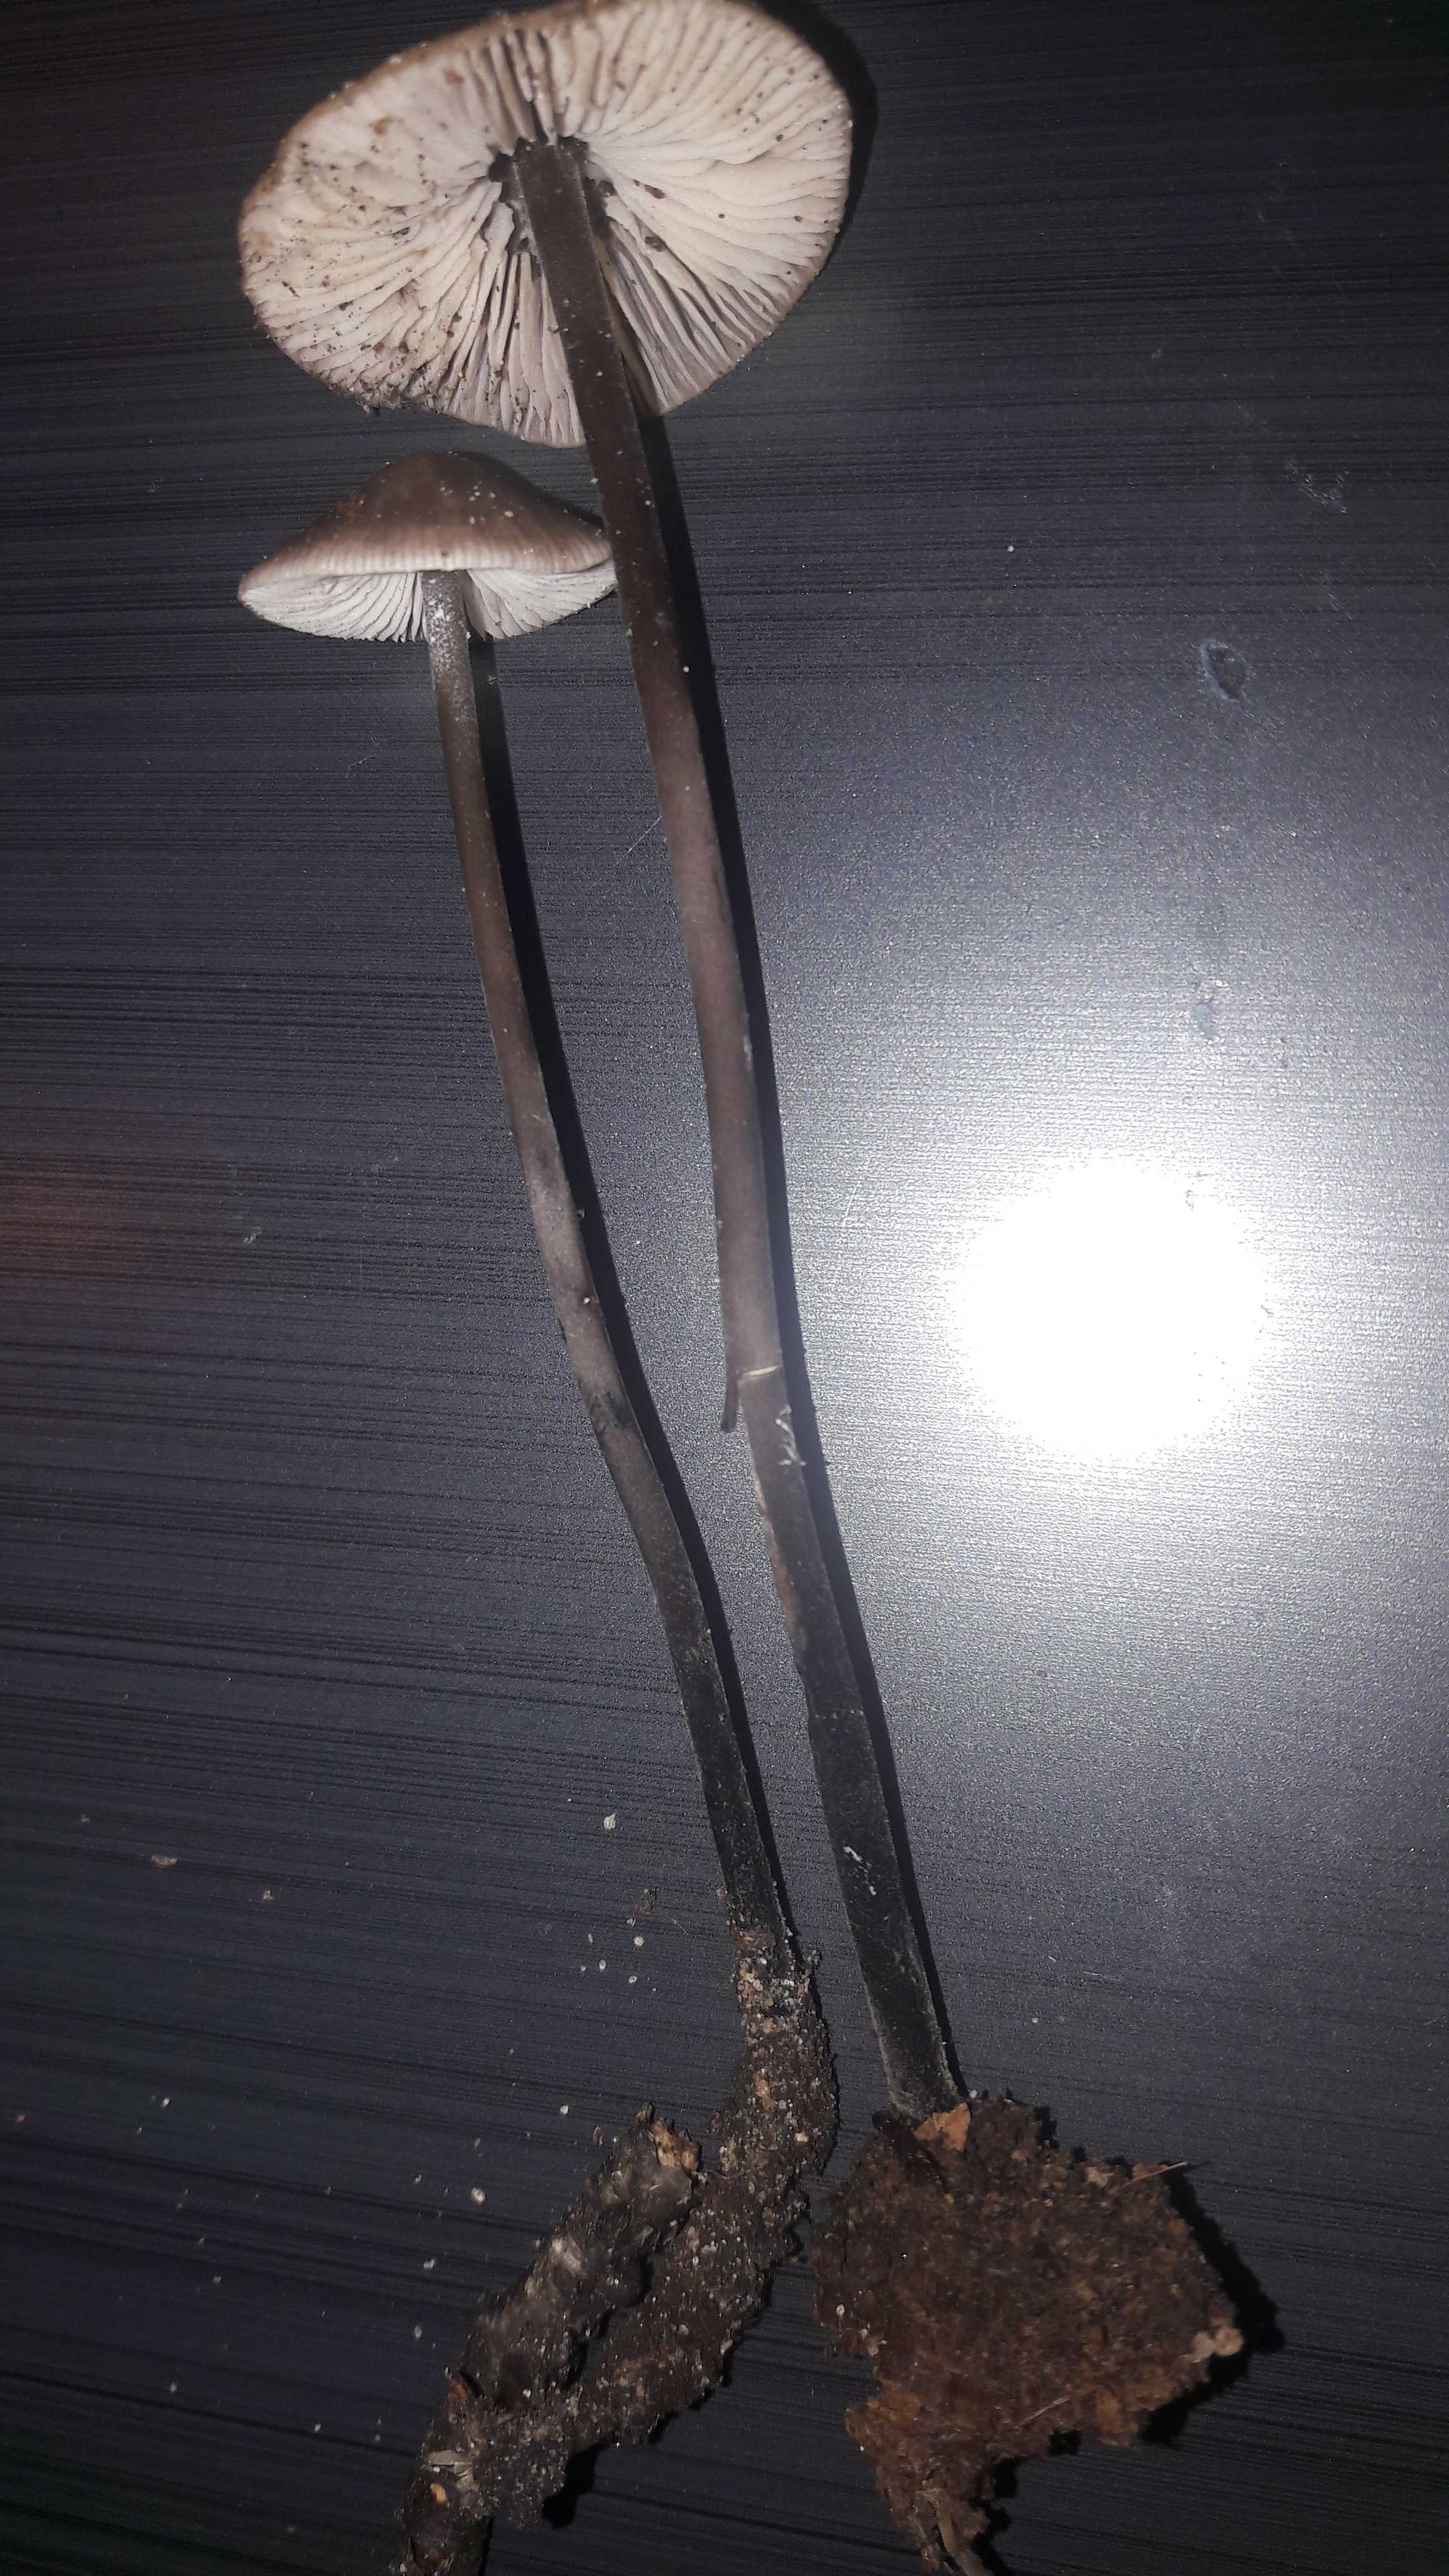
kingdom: Fungi
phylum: Basidiomycota
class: Agaricomycetes
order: Agaricales
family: Omphalotaceae
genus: Mycetinis
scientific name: Mycetinis alliaceus
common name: stor løghat
